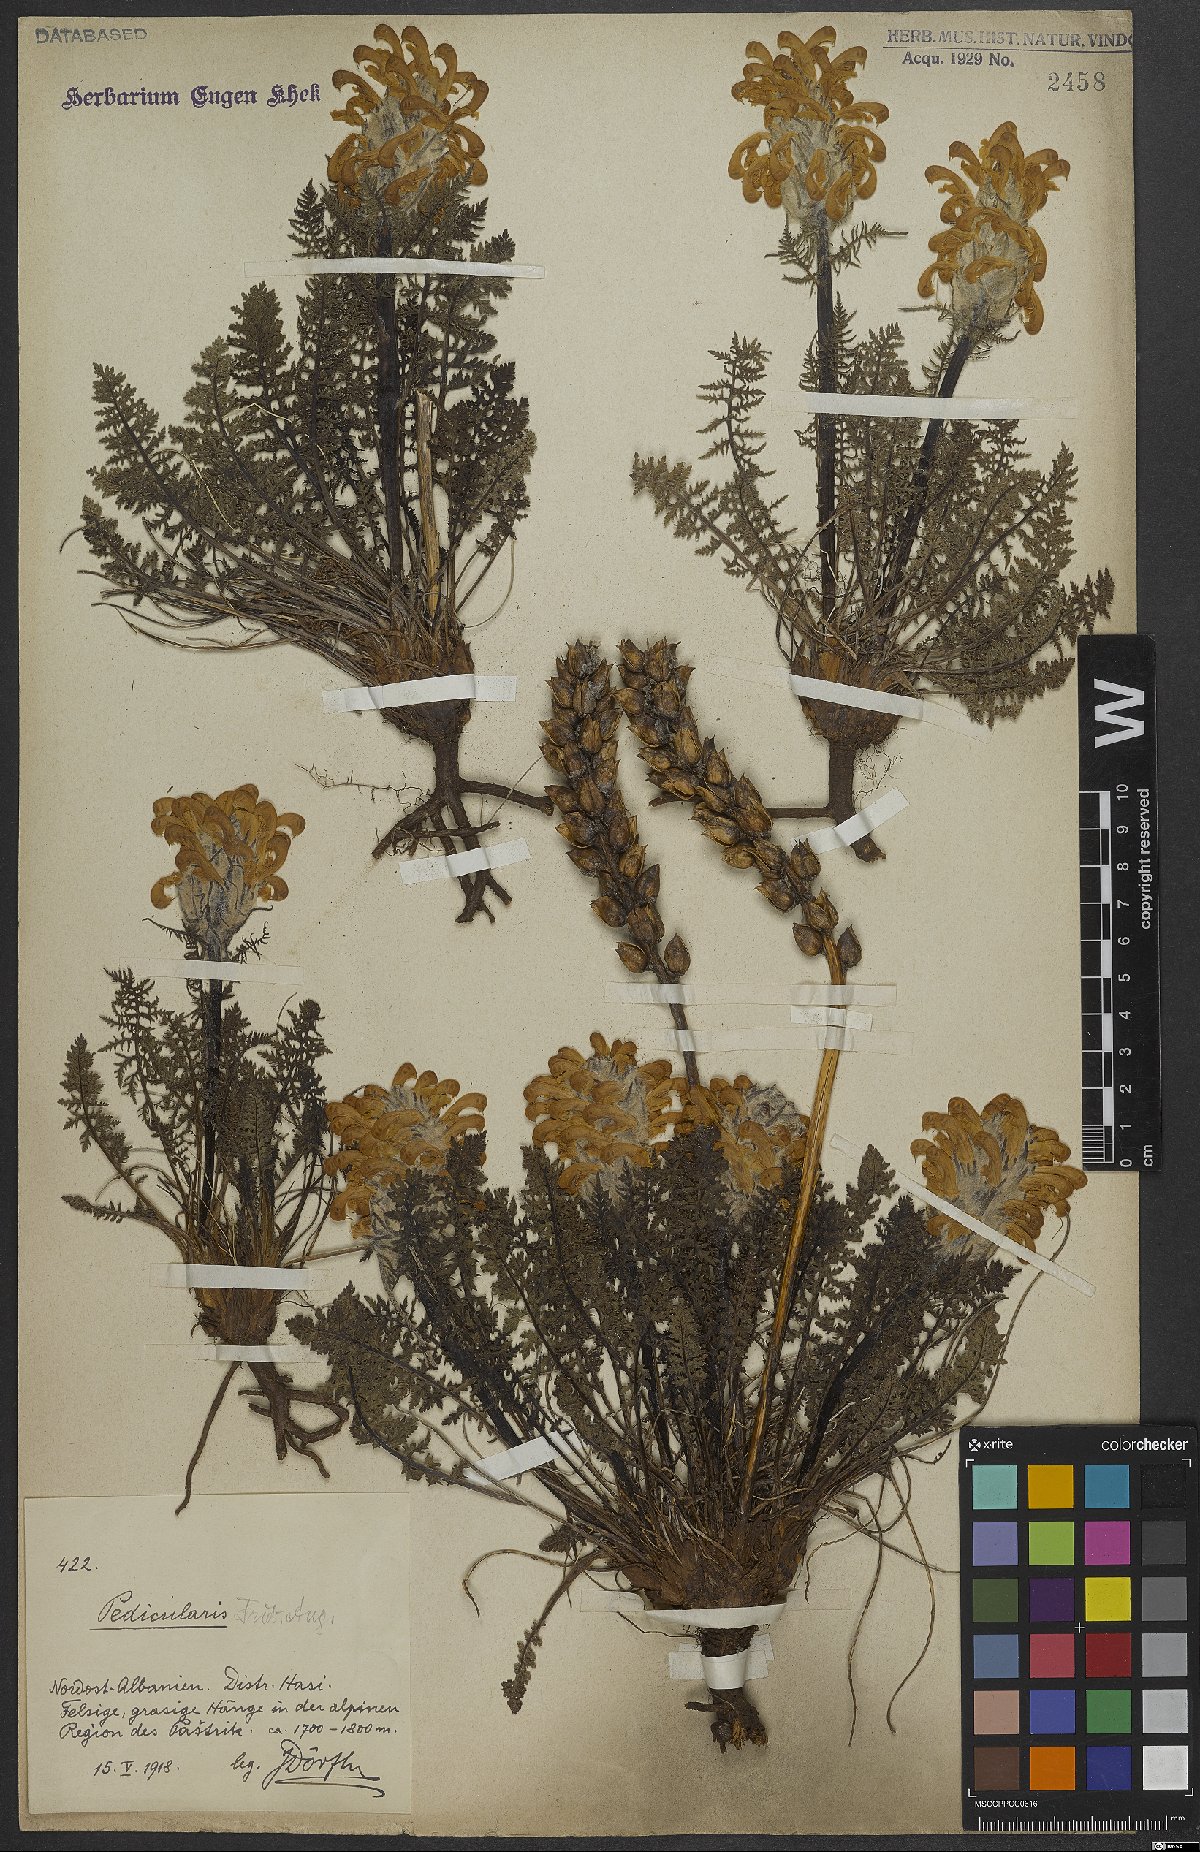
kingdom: Plantae
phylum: Tracheophyta
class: Magnoliopsida
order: Lamiales
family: Orobanchaceae
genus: Pedicularis
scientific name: Pedicularis friderici-augusti
